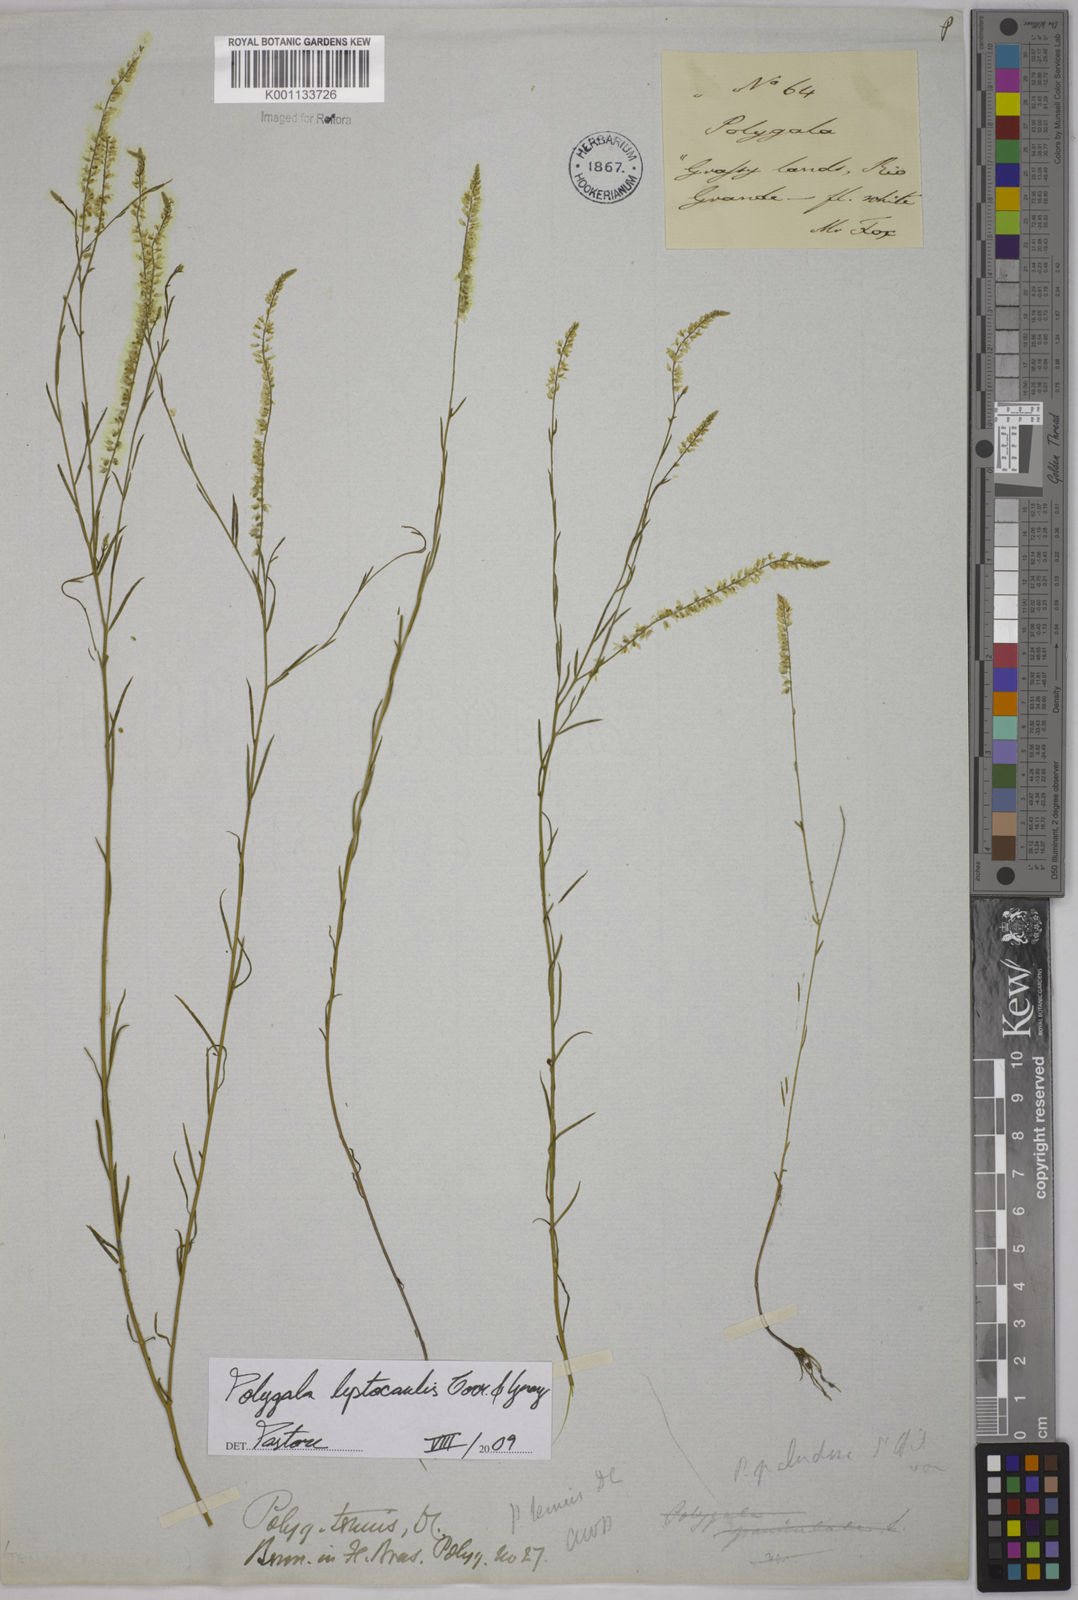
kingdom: Plantae
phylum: Tracheophyta
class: Magnoliopsida
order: Fabales
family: Polygalaceae
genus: Polygala
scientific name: Polygala tenella
